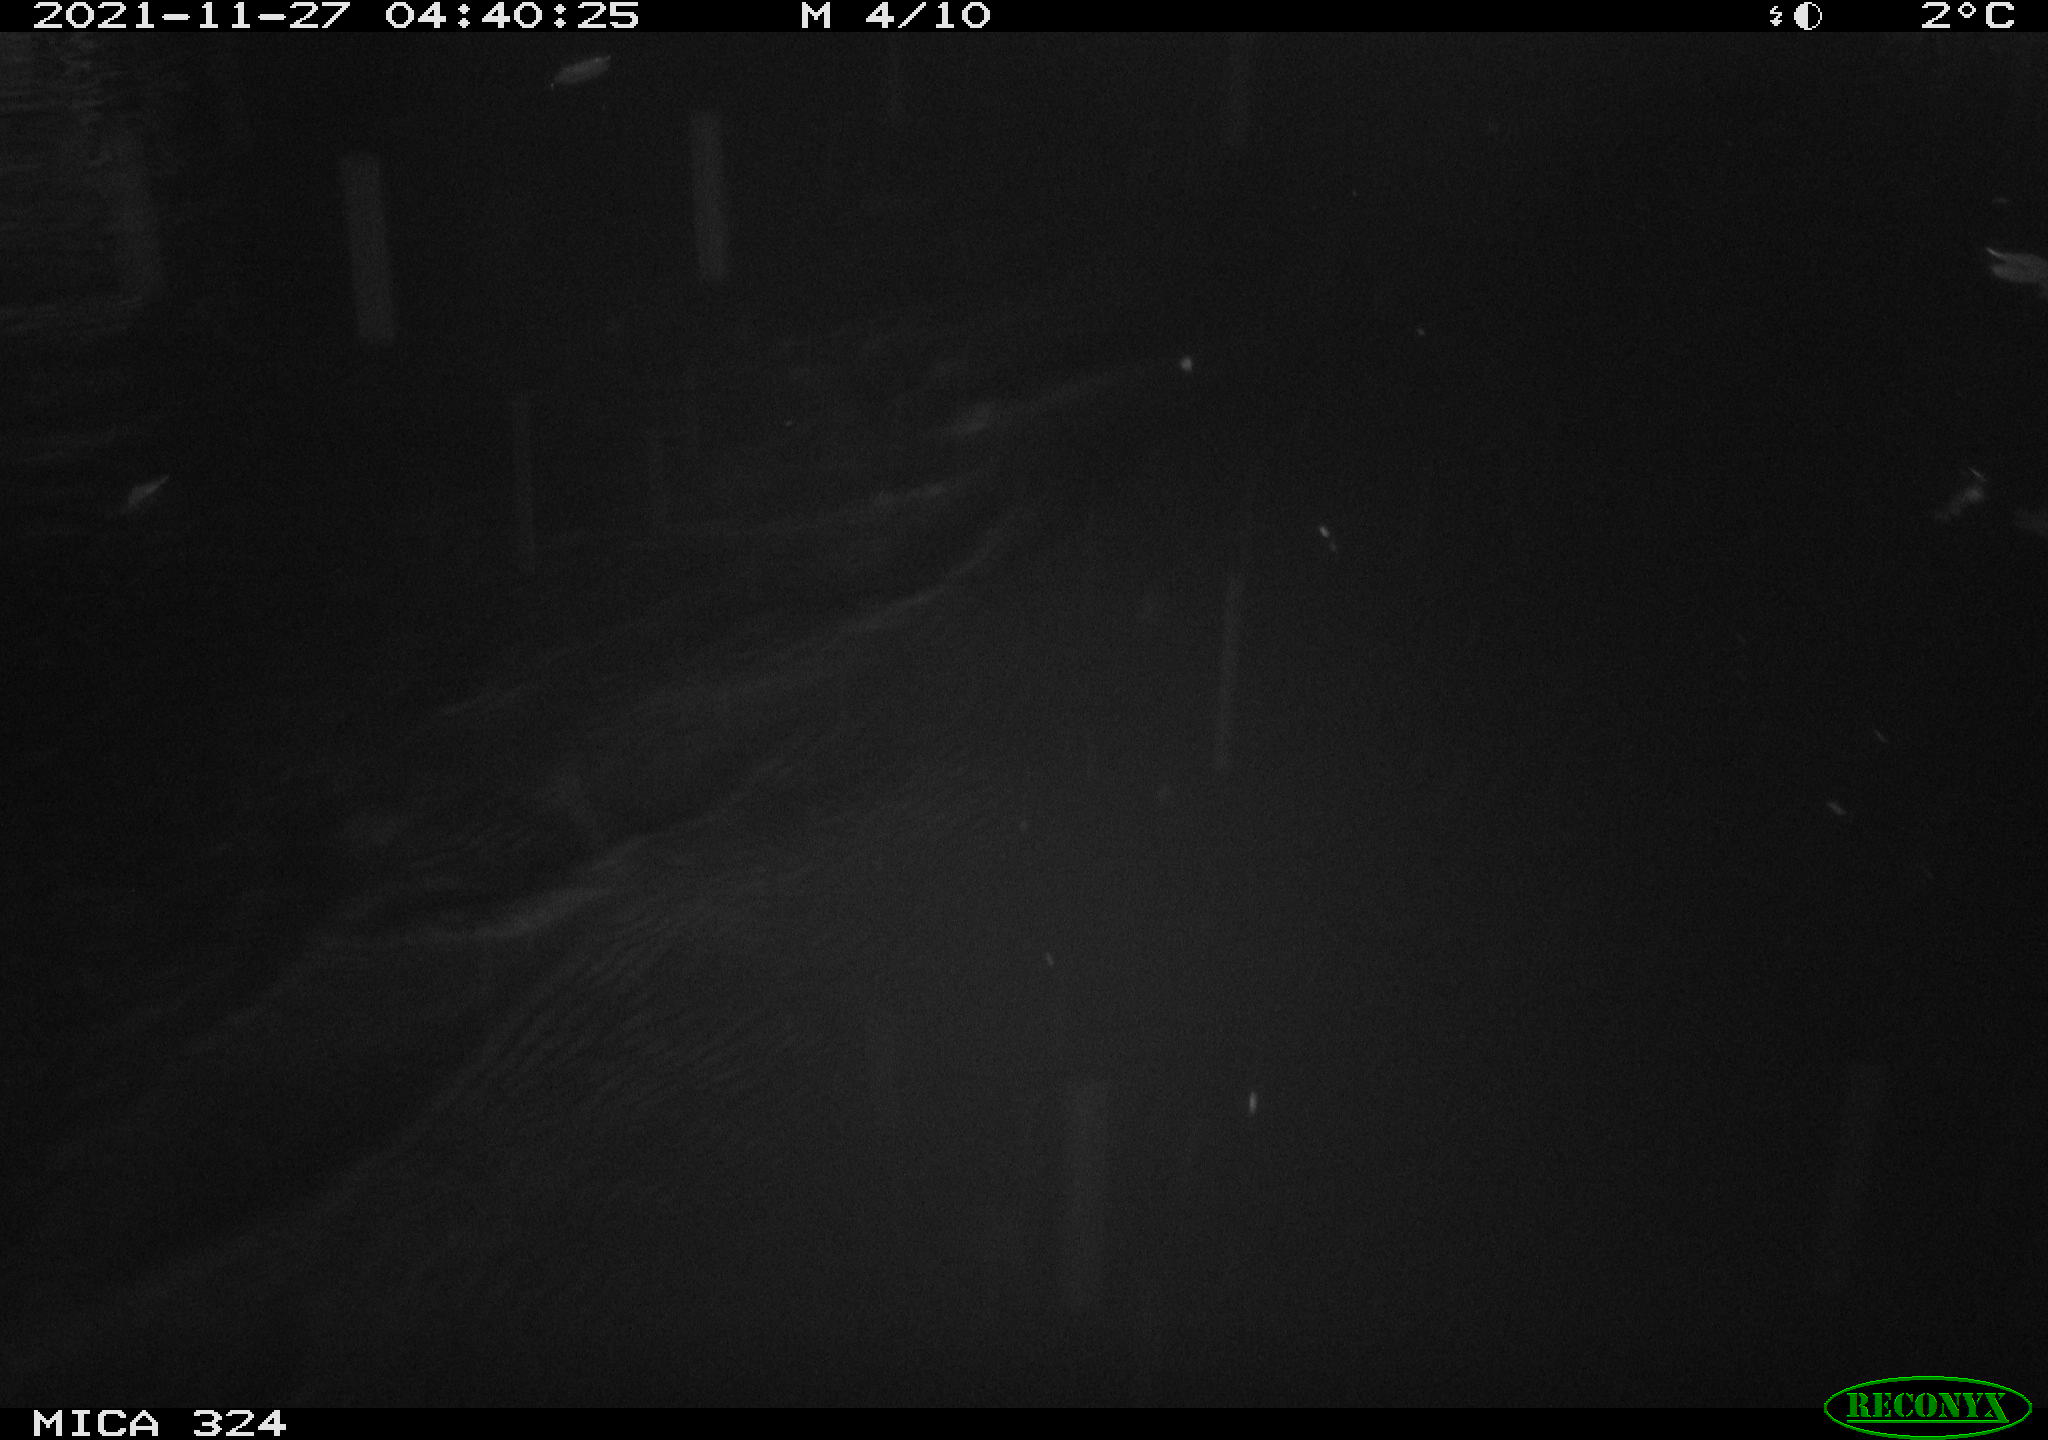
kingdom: Animalia
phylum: Chordata
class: Mammalia
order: Rodentia
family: Cricetidae
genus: Ondatra
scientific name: Ondatra zibethicus
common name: Muskrat
